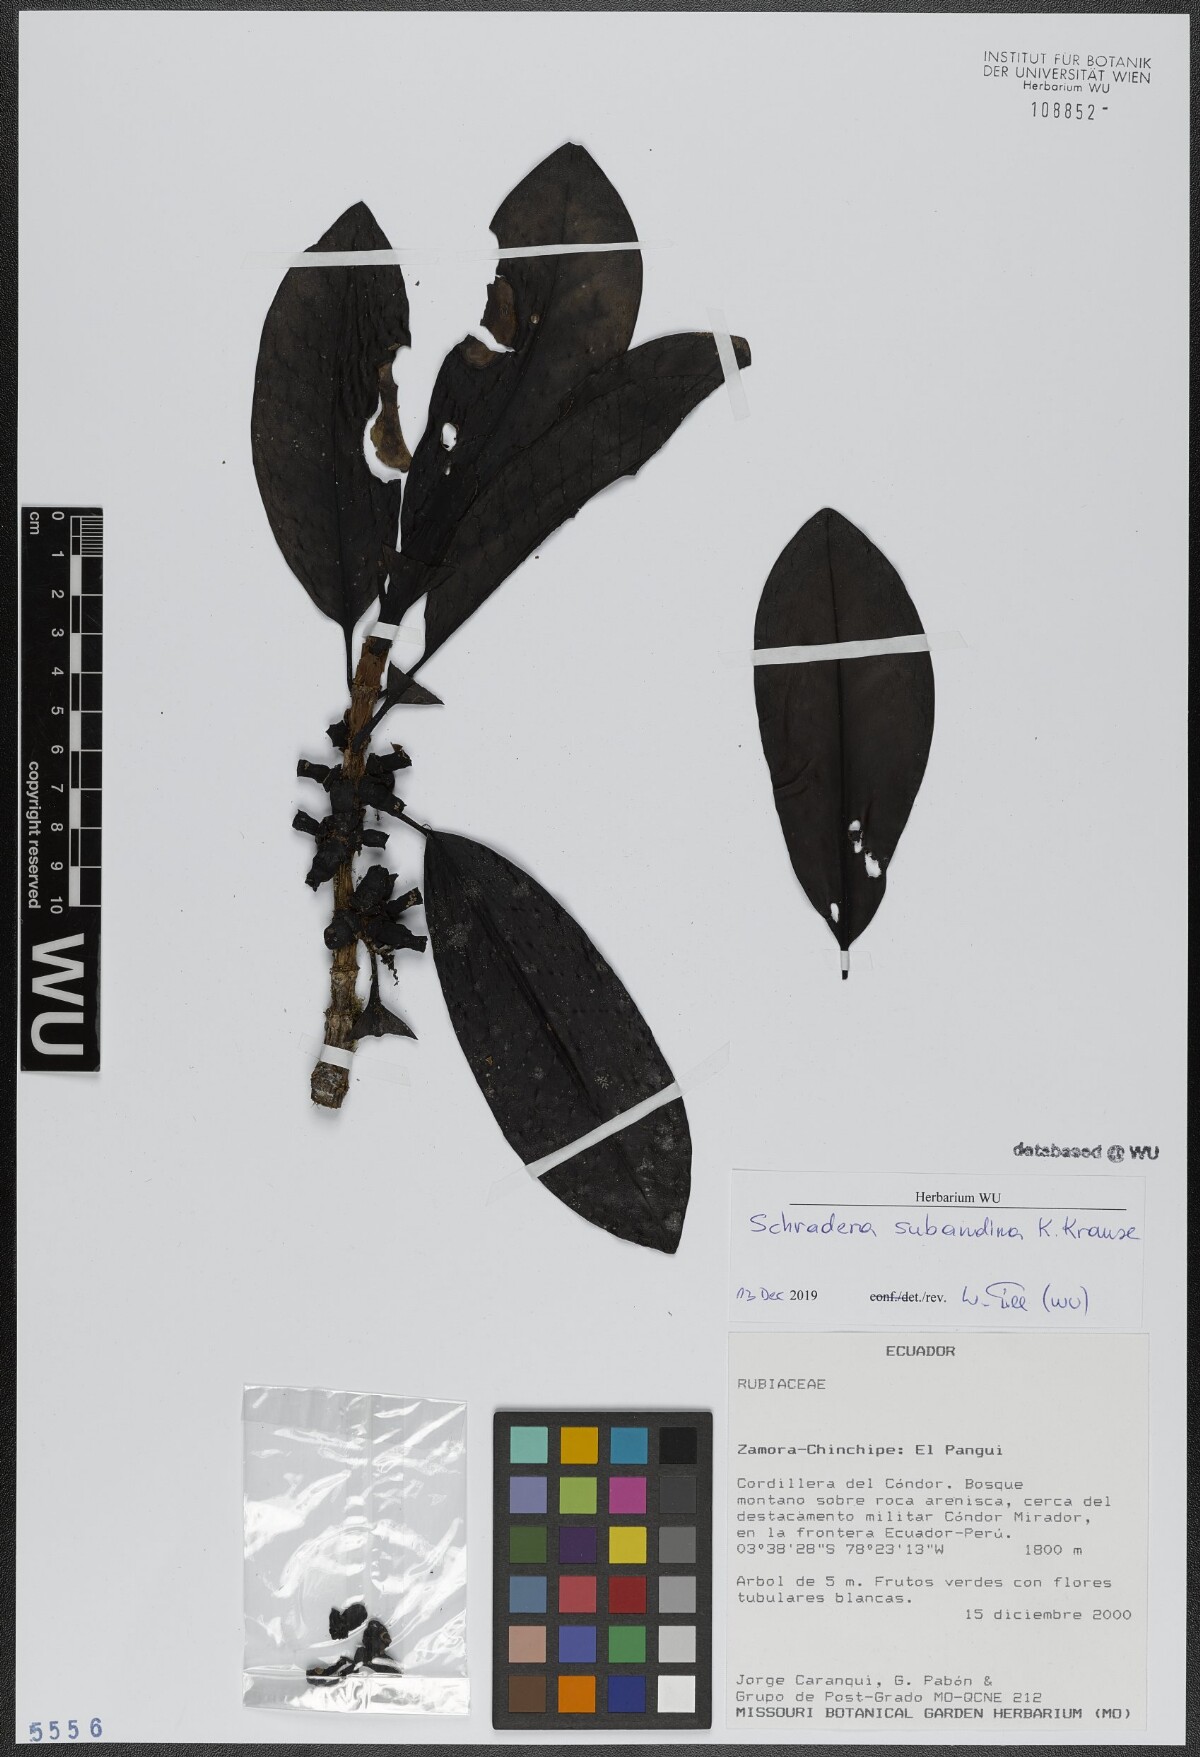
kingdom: Plantae
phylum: Tracheophyta
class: Magnoliopsida
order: Gentianales
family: Rubiaceae
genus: Schradera
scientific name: Schradera subandina
